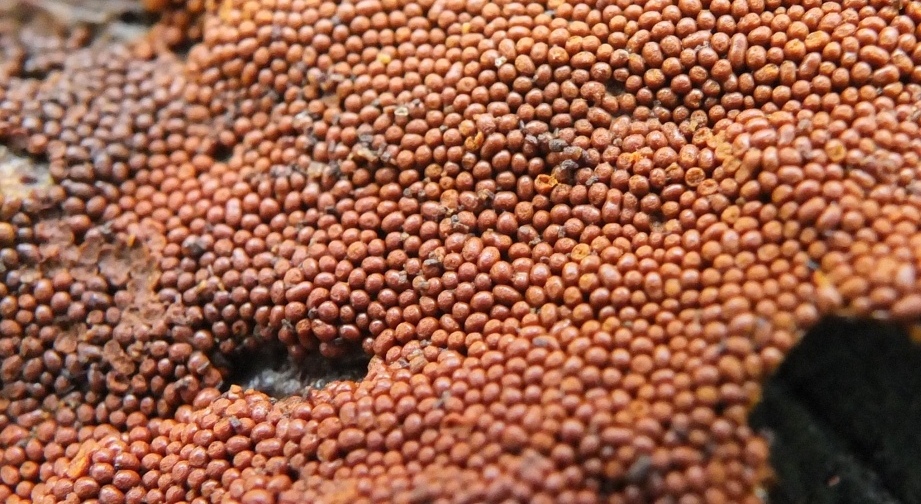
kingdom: Protozoa
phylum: Mycetozoa
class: Myxomycetes
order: Trichiales
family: Trichiaceae
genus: Trichia
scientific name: Trichia scabra
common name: tæppe-hårbold
